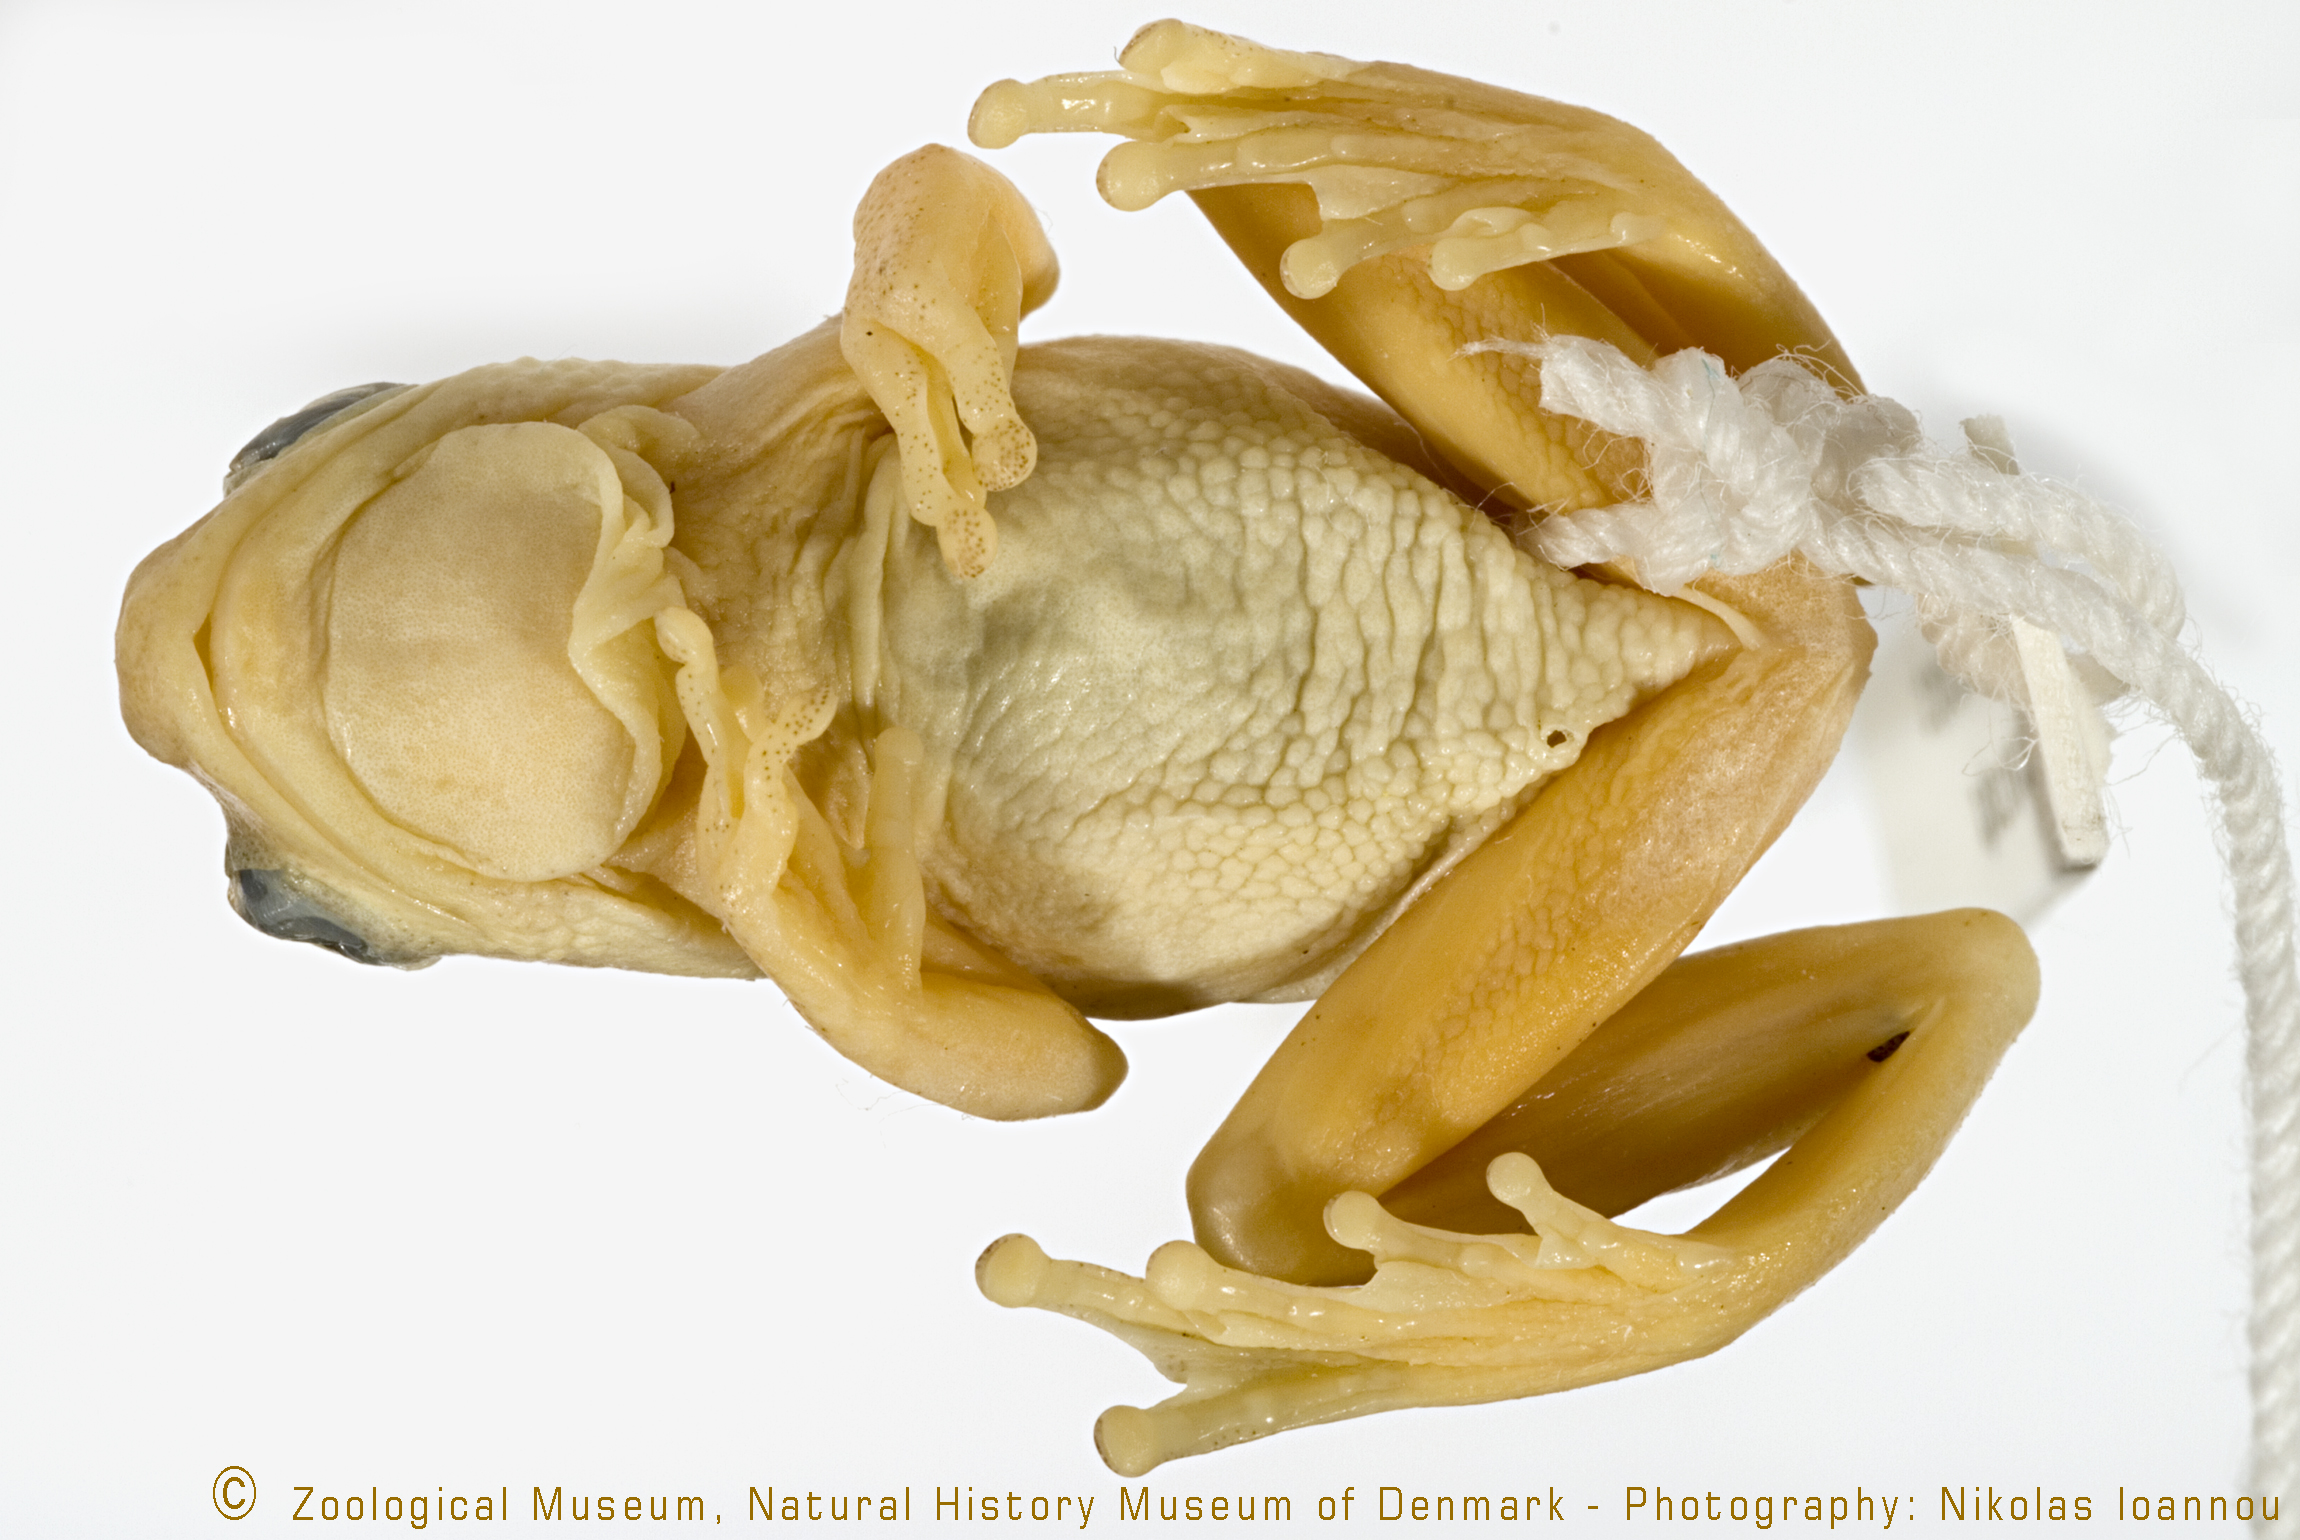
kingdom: Animalia
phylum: Chordata
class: Amphibia
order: Anura
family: Hyperoliidae
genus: Hyperolius
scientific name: Hyperolius viridiflavus
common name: Common reed frog
